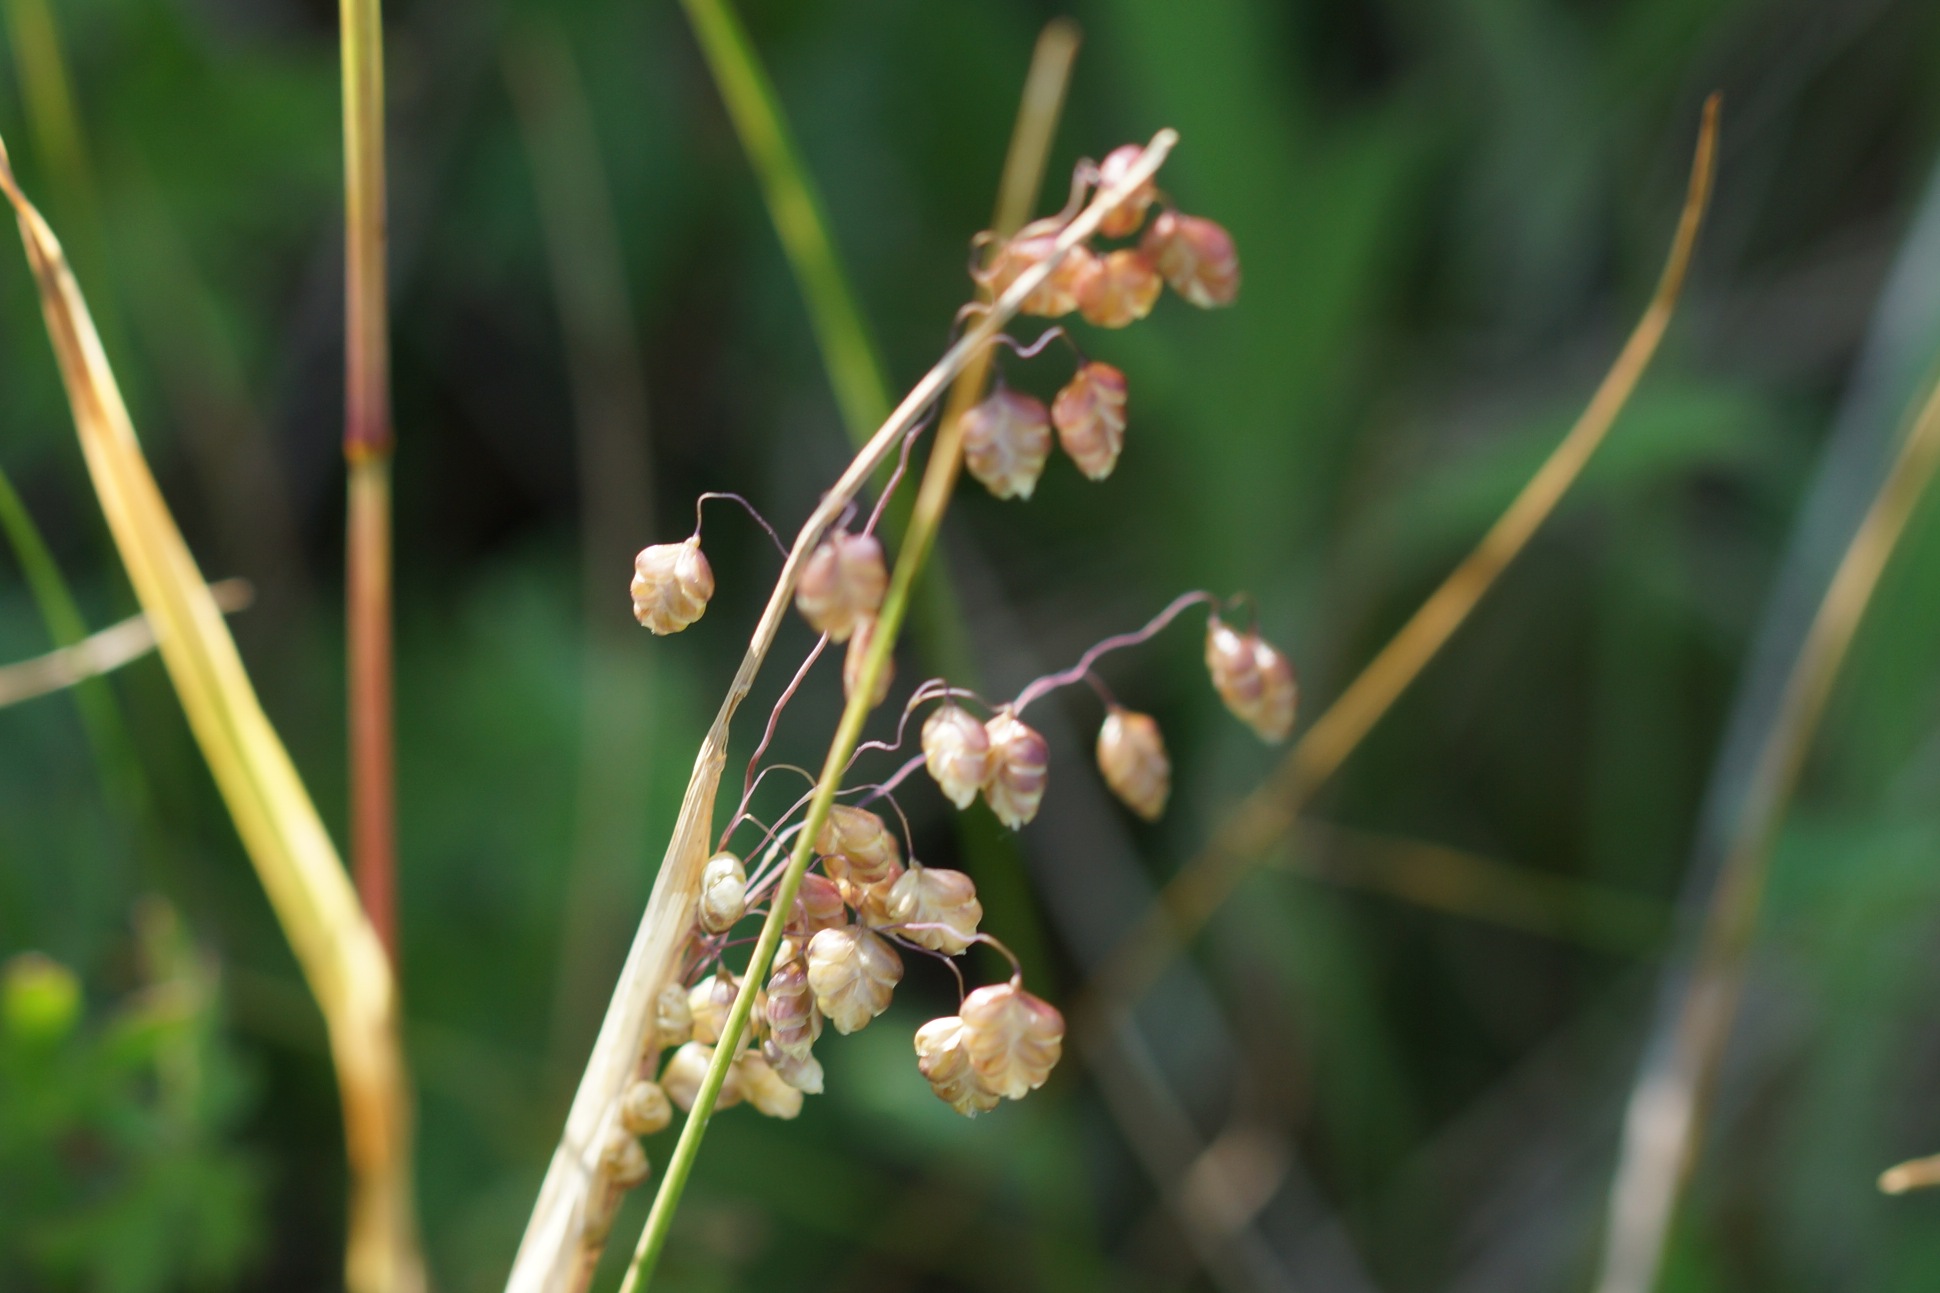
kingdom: Plantae
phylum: Tracheophyta
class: Liliopsida
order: Poales
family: Poaceae
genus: Briza
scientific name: Briza media
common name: Hjertegræs
